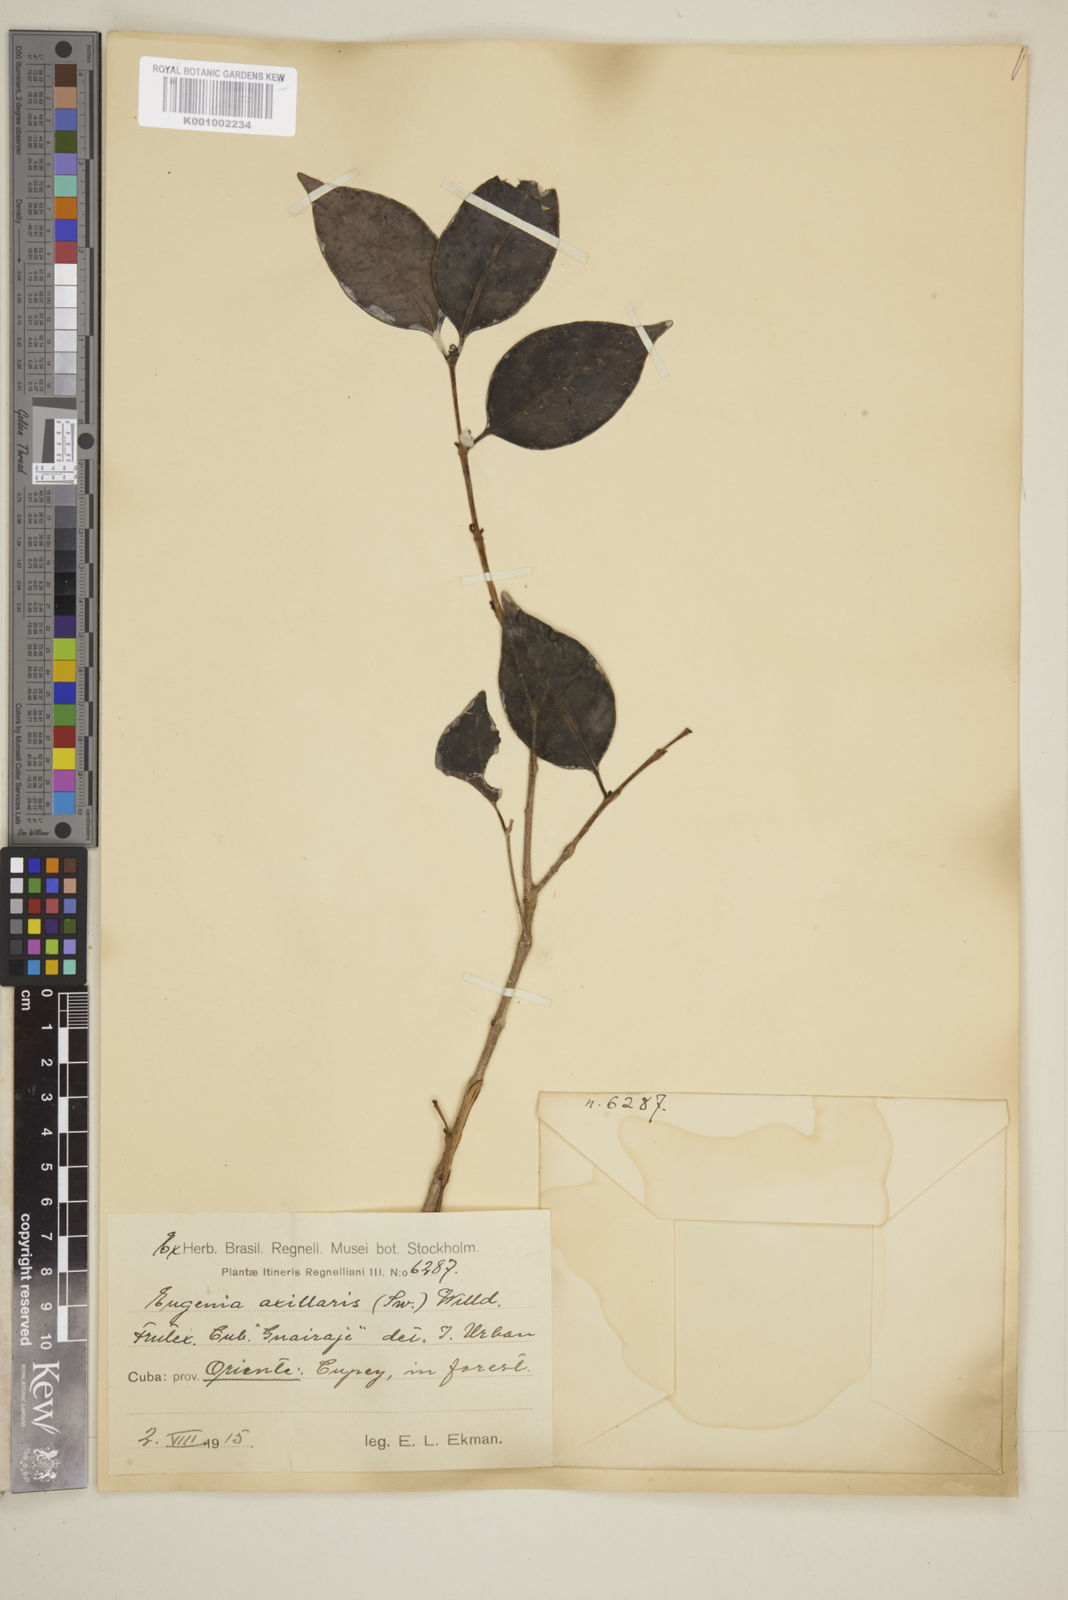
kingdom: Plantae
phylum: Tracheophyta
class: Magnoliopsida
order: Myrtales
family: Myrtaceae
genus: Eugenia
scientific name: Eugenia axillaris
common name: Choaky berry
